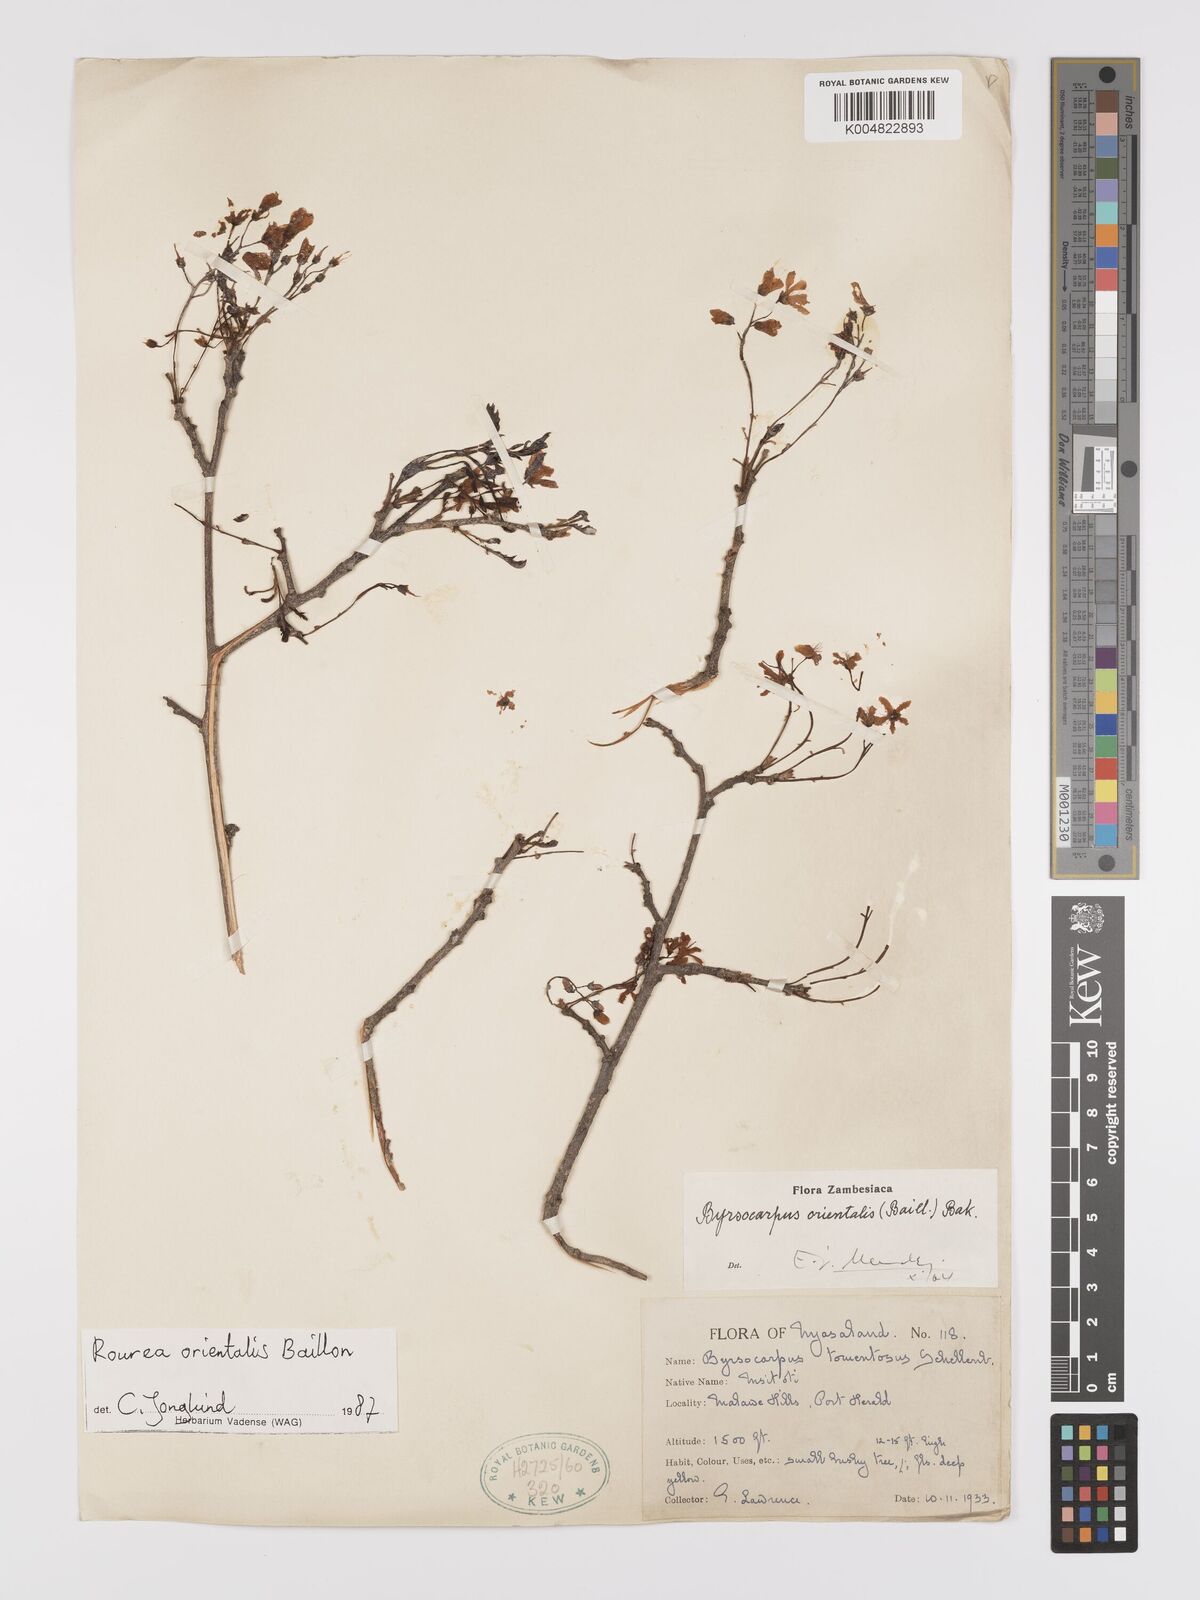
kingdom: Plantae
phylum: Tracheophyta
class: Magnoliopsida
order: Oxalidales
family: Connaraceae
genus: Rourea
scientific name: Rourea orientalis
